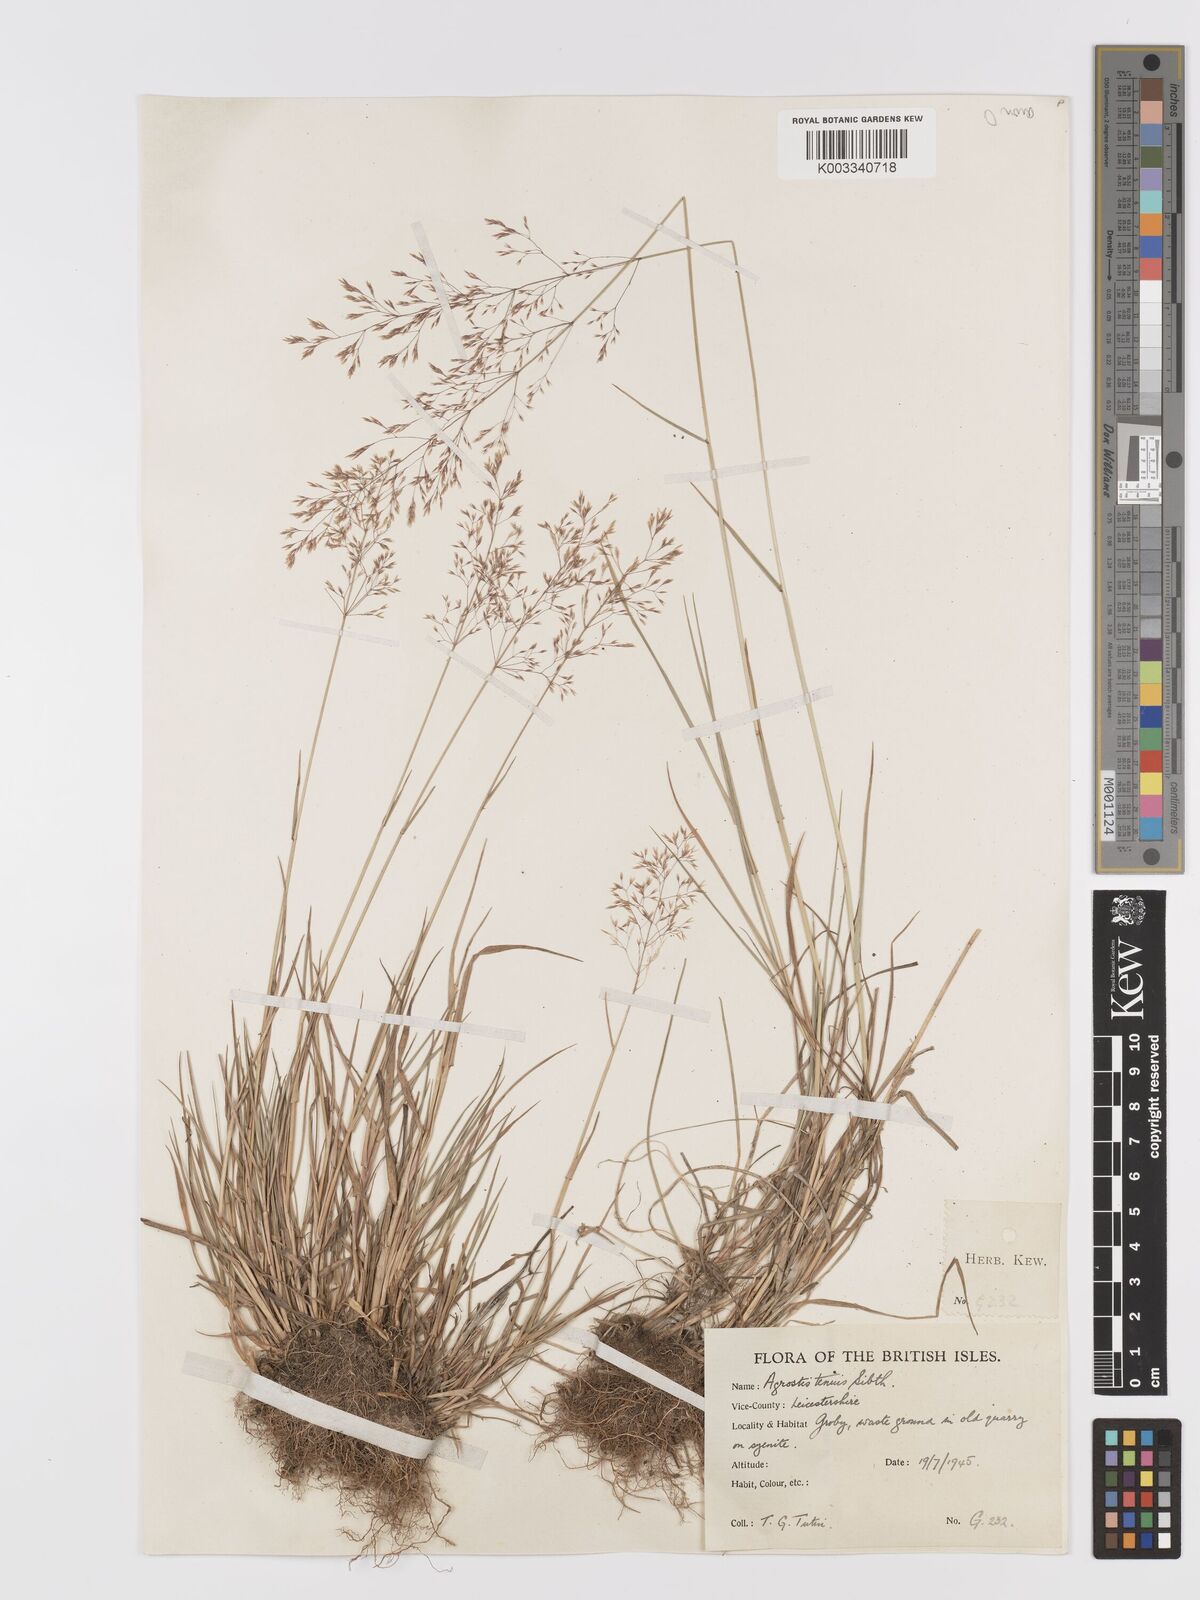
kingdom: Plantae
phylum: Tracheophyta
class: Liliopsida
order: Poales
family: Poaceae
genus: Agrostis
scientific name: Agrostis capillaris
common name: Colonial bentgrass
